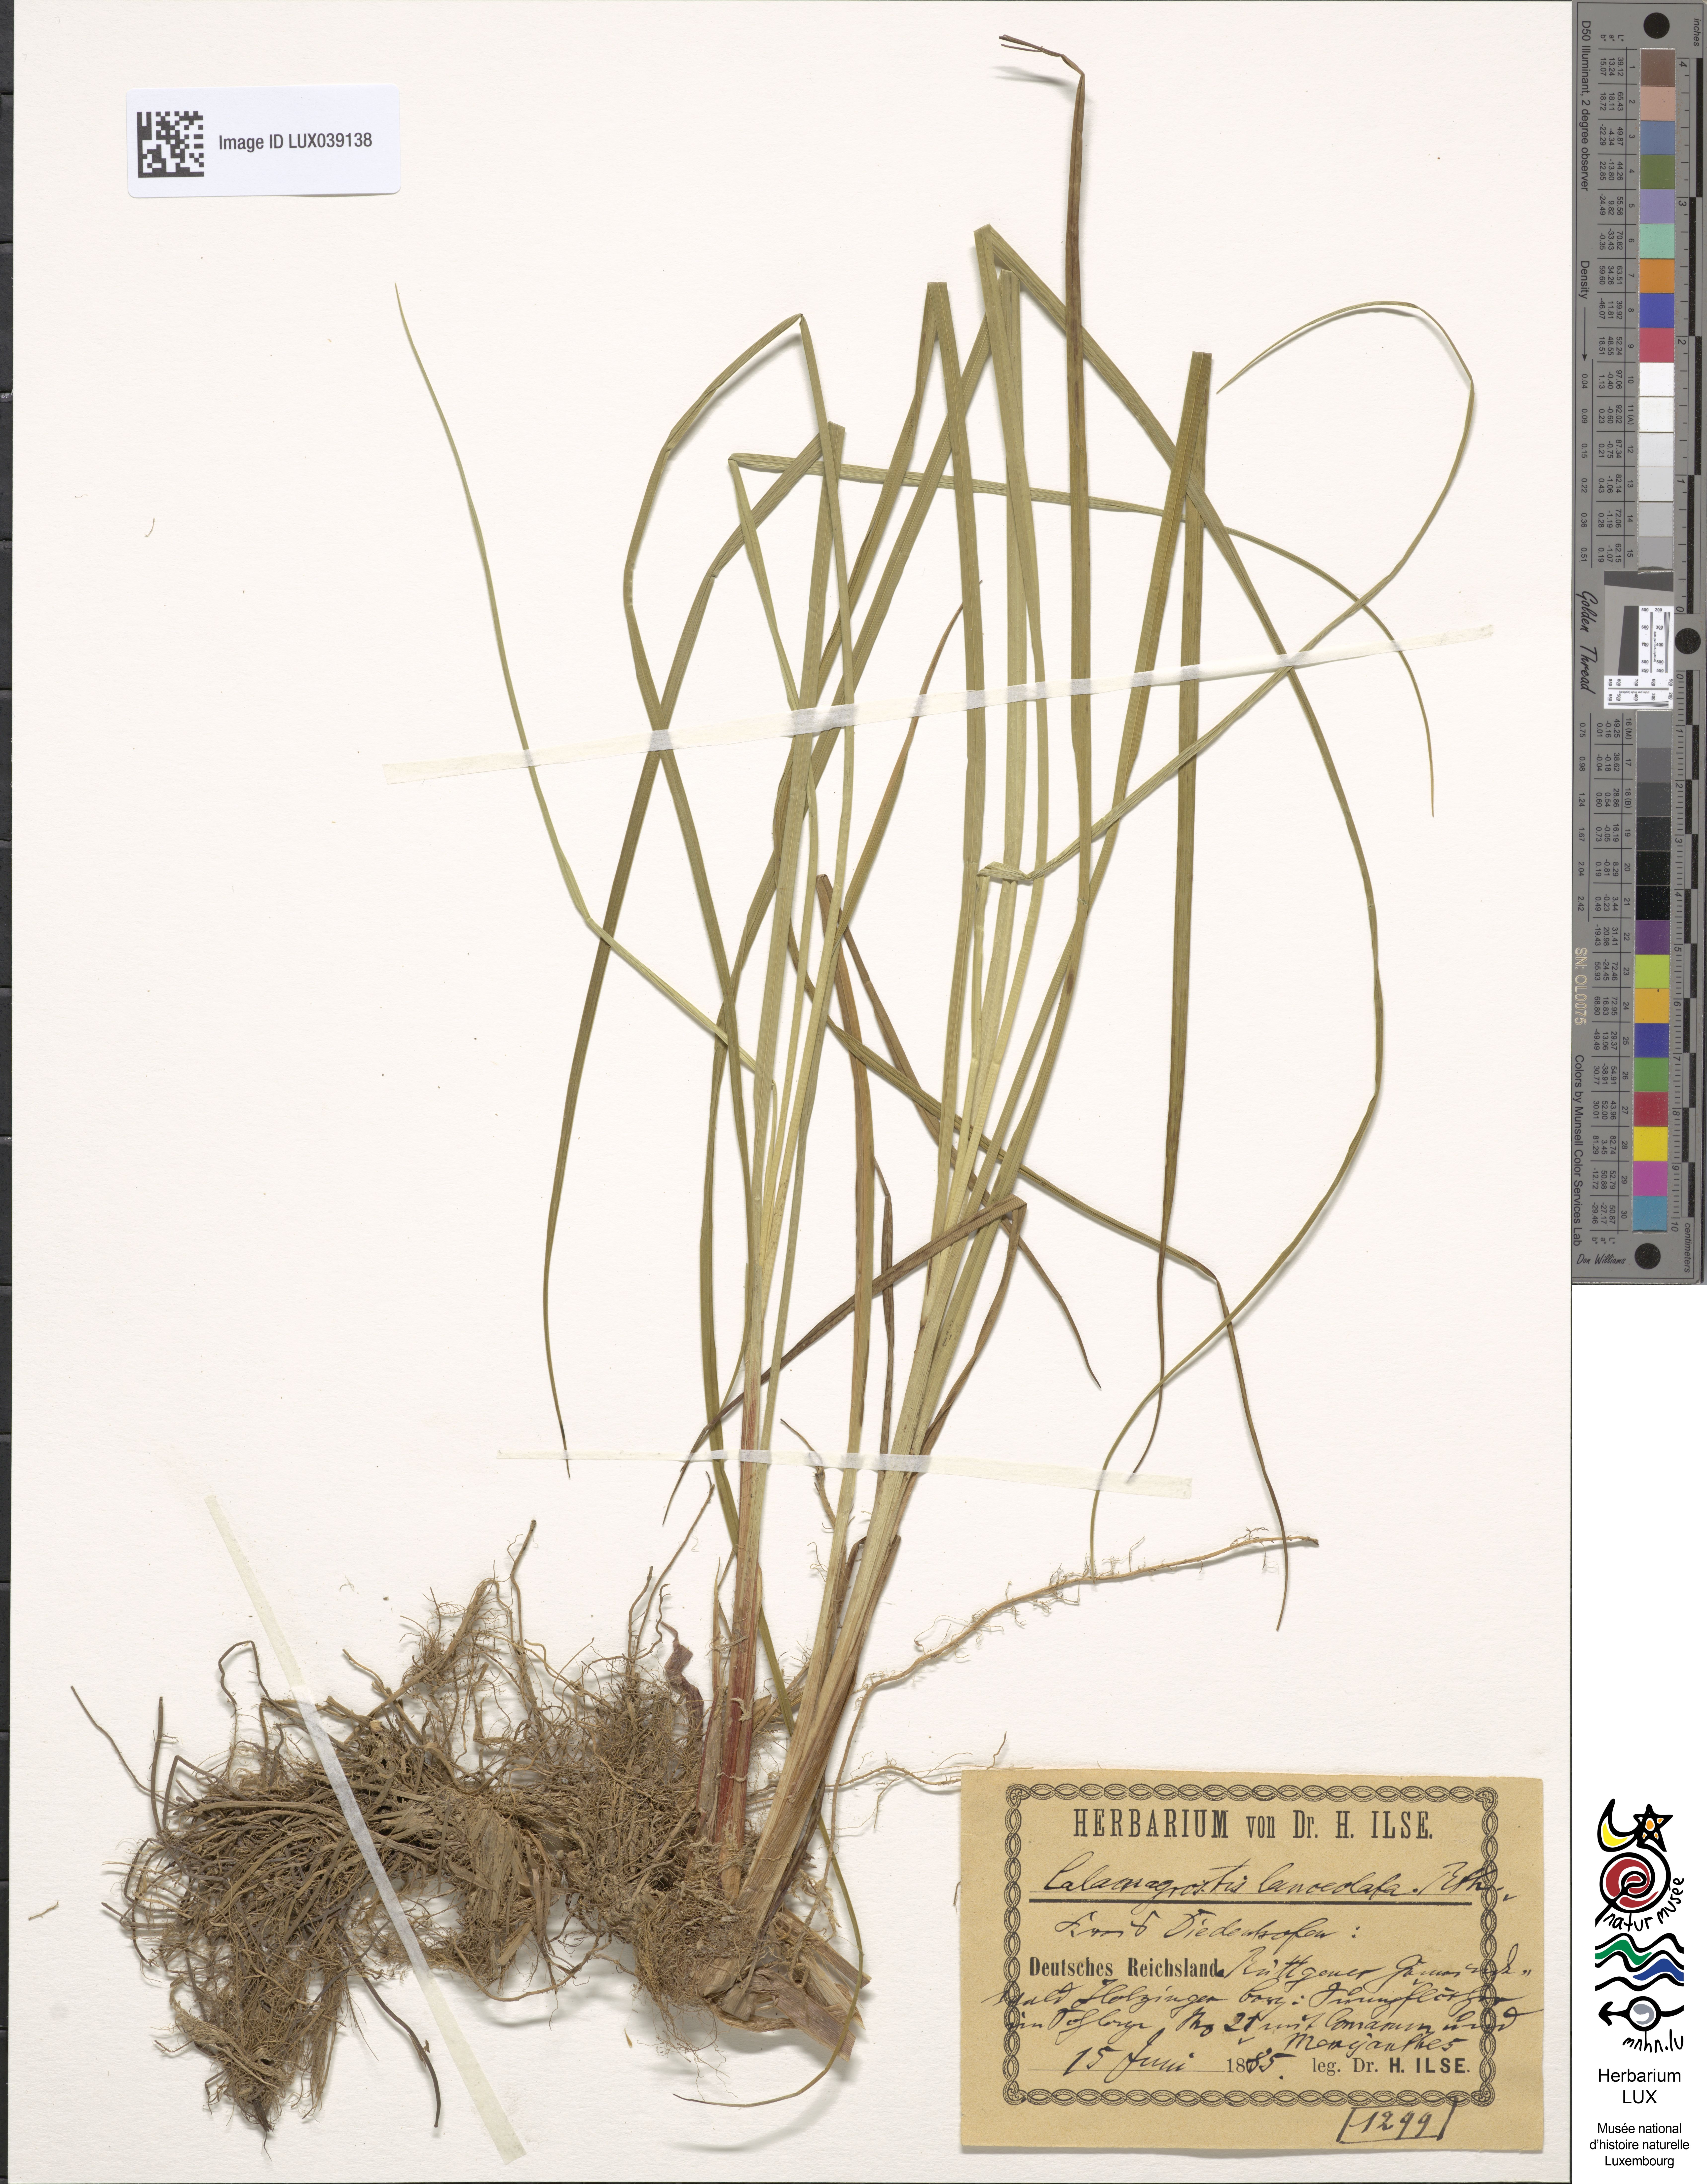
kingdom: Plantae
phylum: Tracheophyta
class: Liliopsida
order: Poales
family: Poaceae
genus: Calamagrostis
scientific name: Calamagrostis canescens
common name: Purple small-reed
